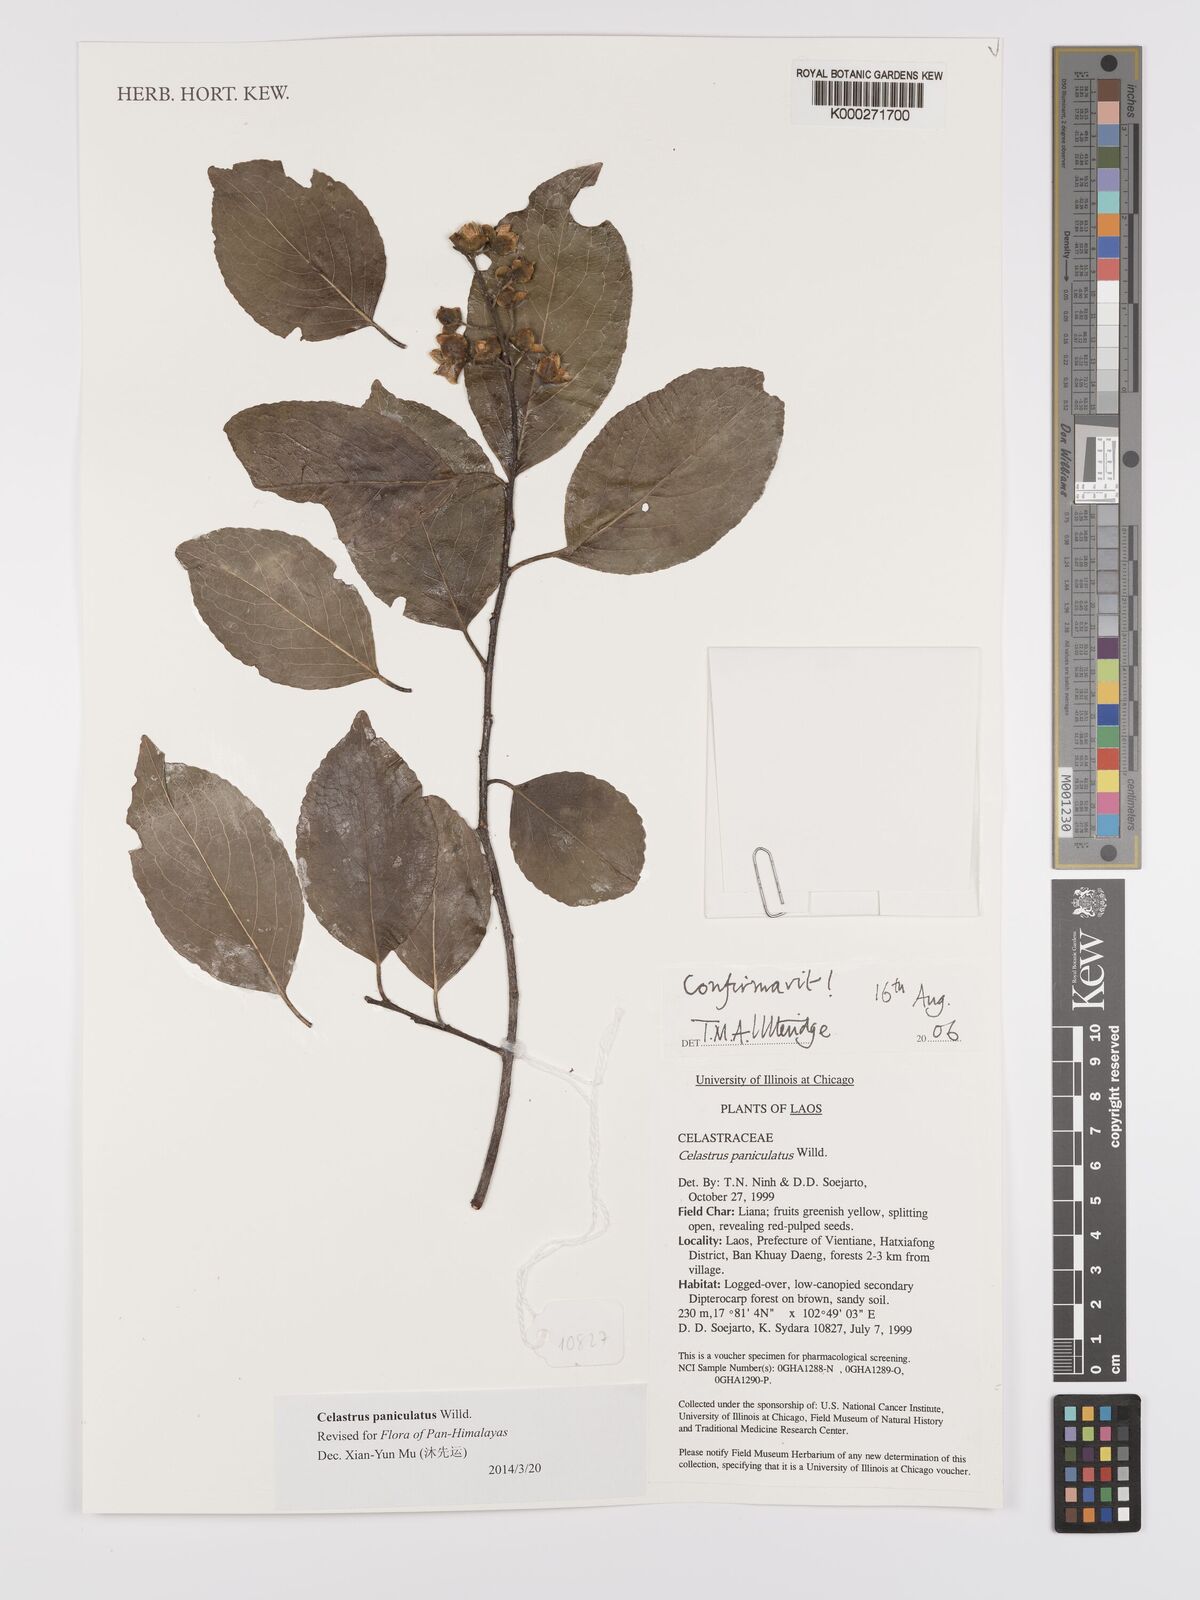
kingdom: Plantae
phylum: Tracheophyta
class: Magnoliopsida
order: Celastrales
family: Celastraceae
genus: Celastrus
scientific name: Celastrus paniculatus
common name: Oriental bittersweet; staff vine
